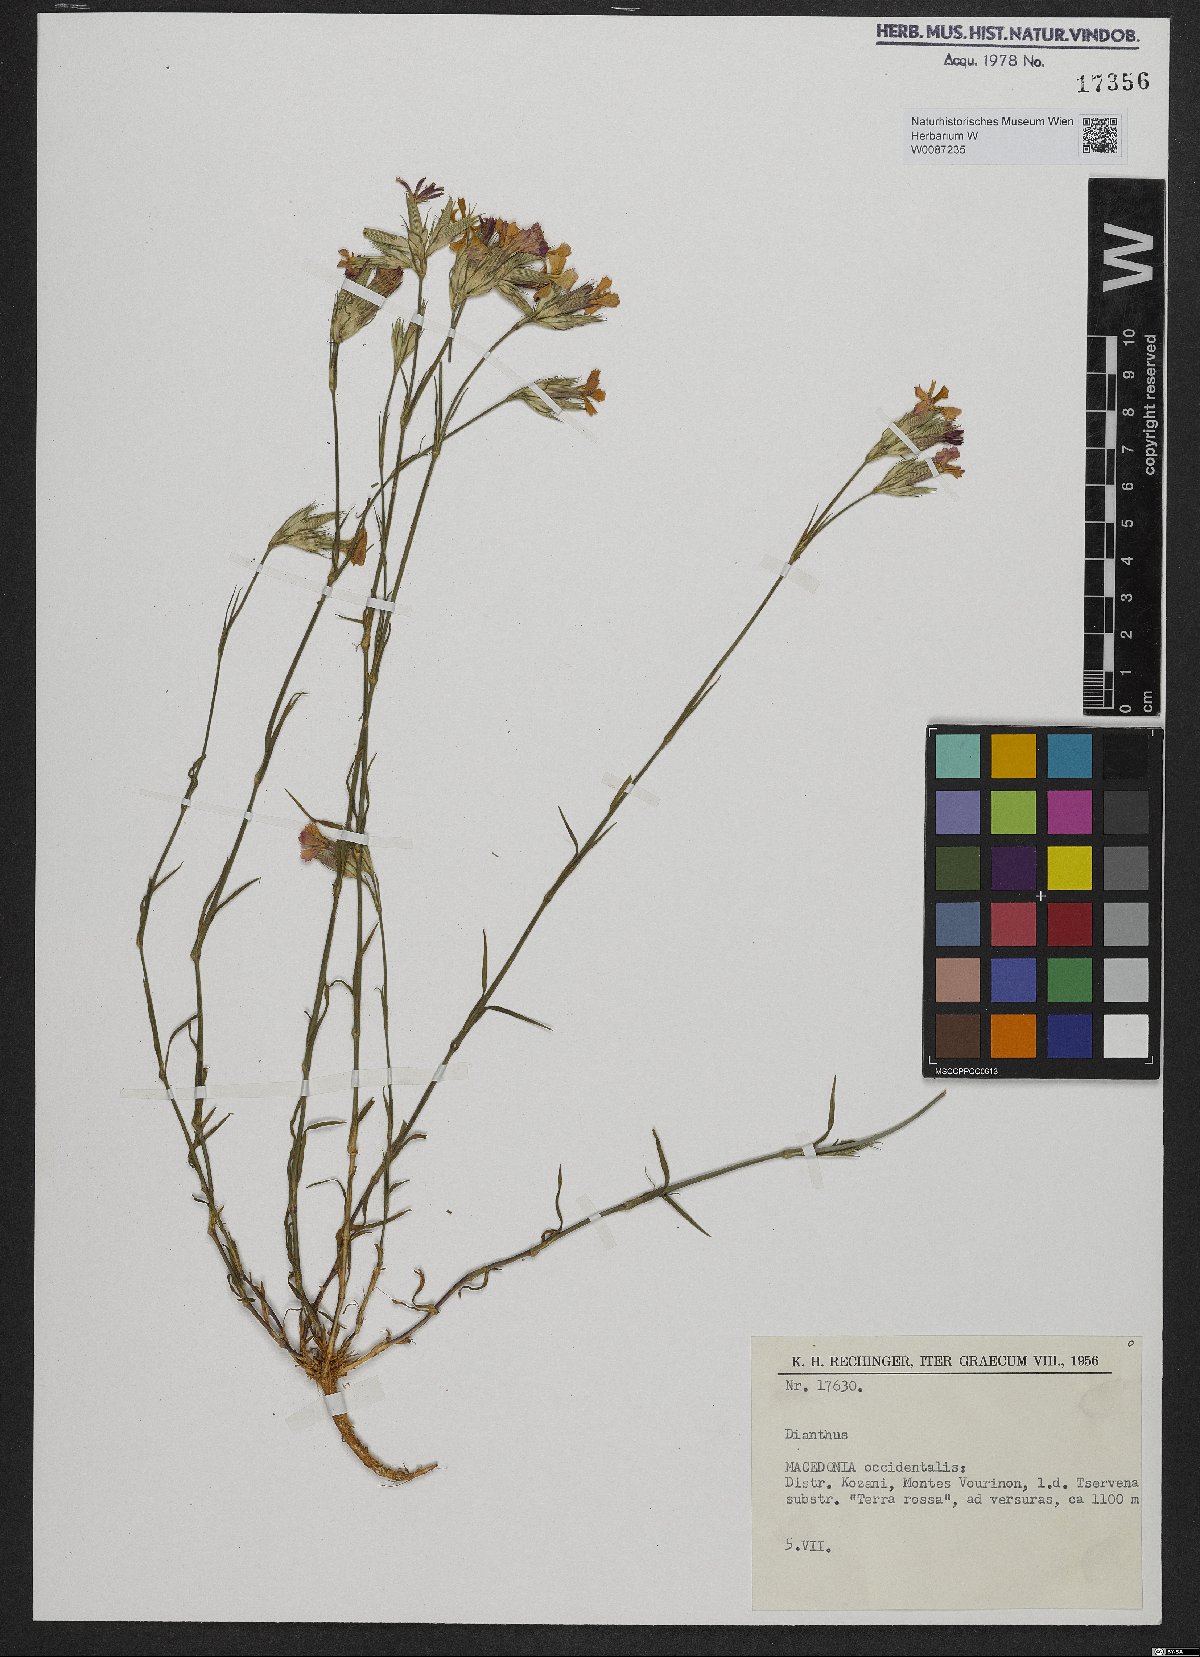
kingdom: Plantae
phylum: Tracheophyta
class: Magnoliopsida
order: Caryophyllales
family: Caryophyllaceae
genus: Dianthus
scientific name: Dianthus
